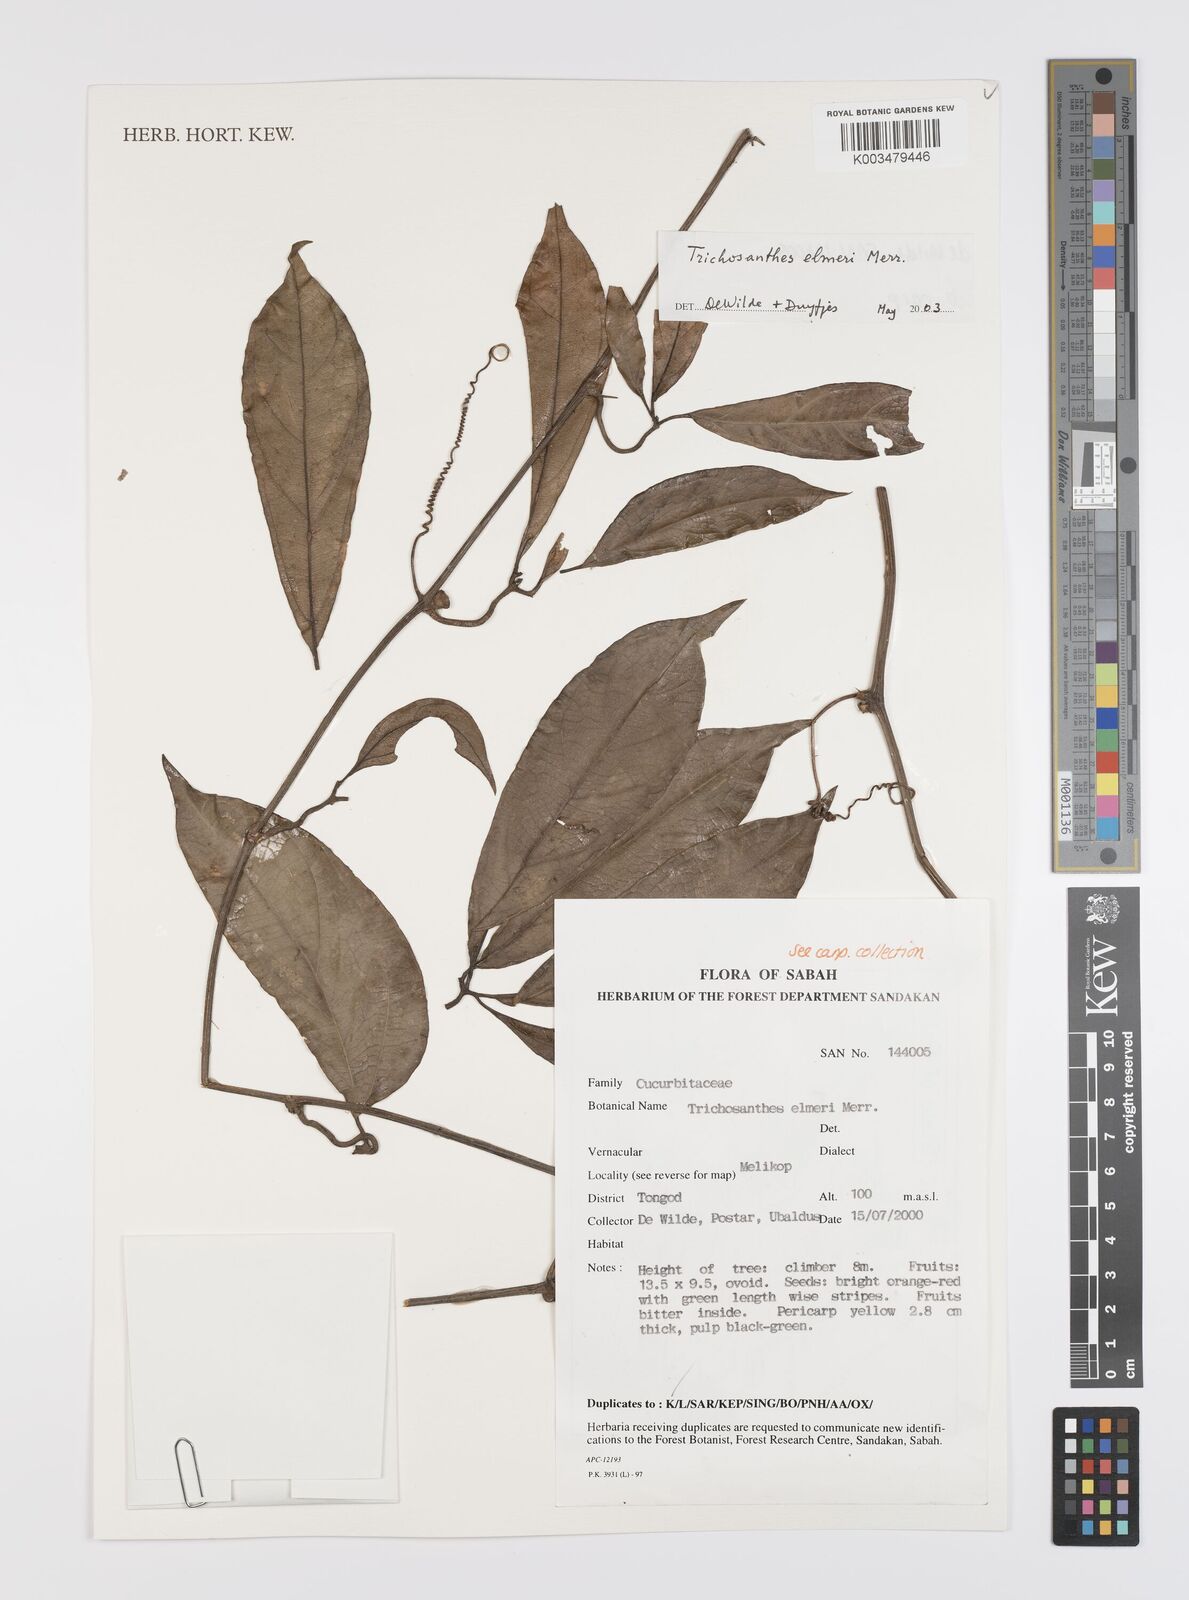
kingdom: Plantae
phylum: Tracheophyta
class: Magnoliopsida
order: Cucurbitales
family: Cucurbitaceae
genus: Trichosanthes
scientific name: Trichosanthes elmeri
